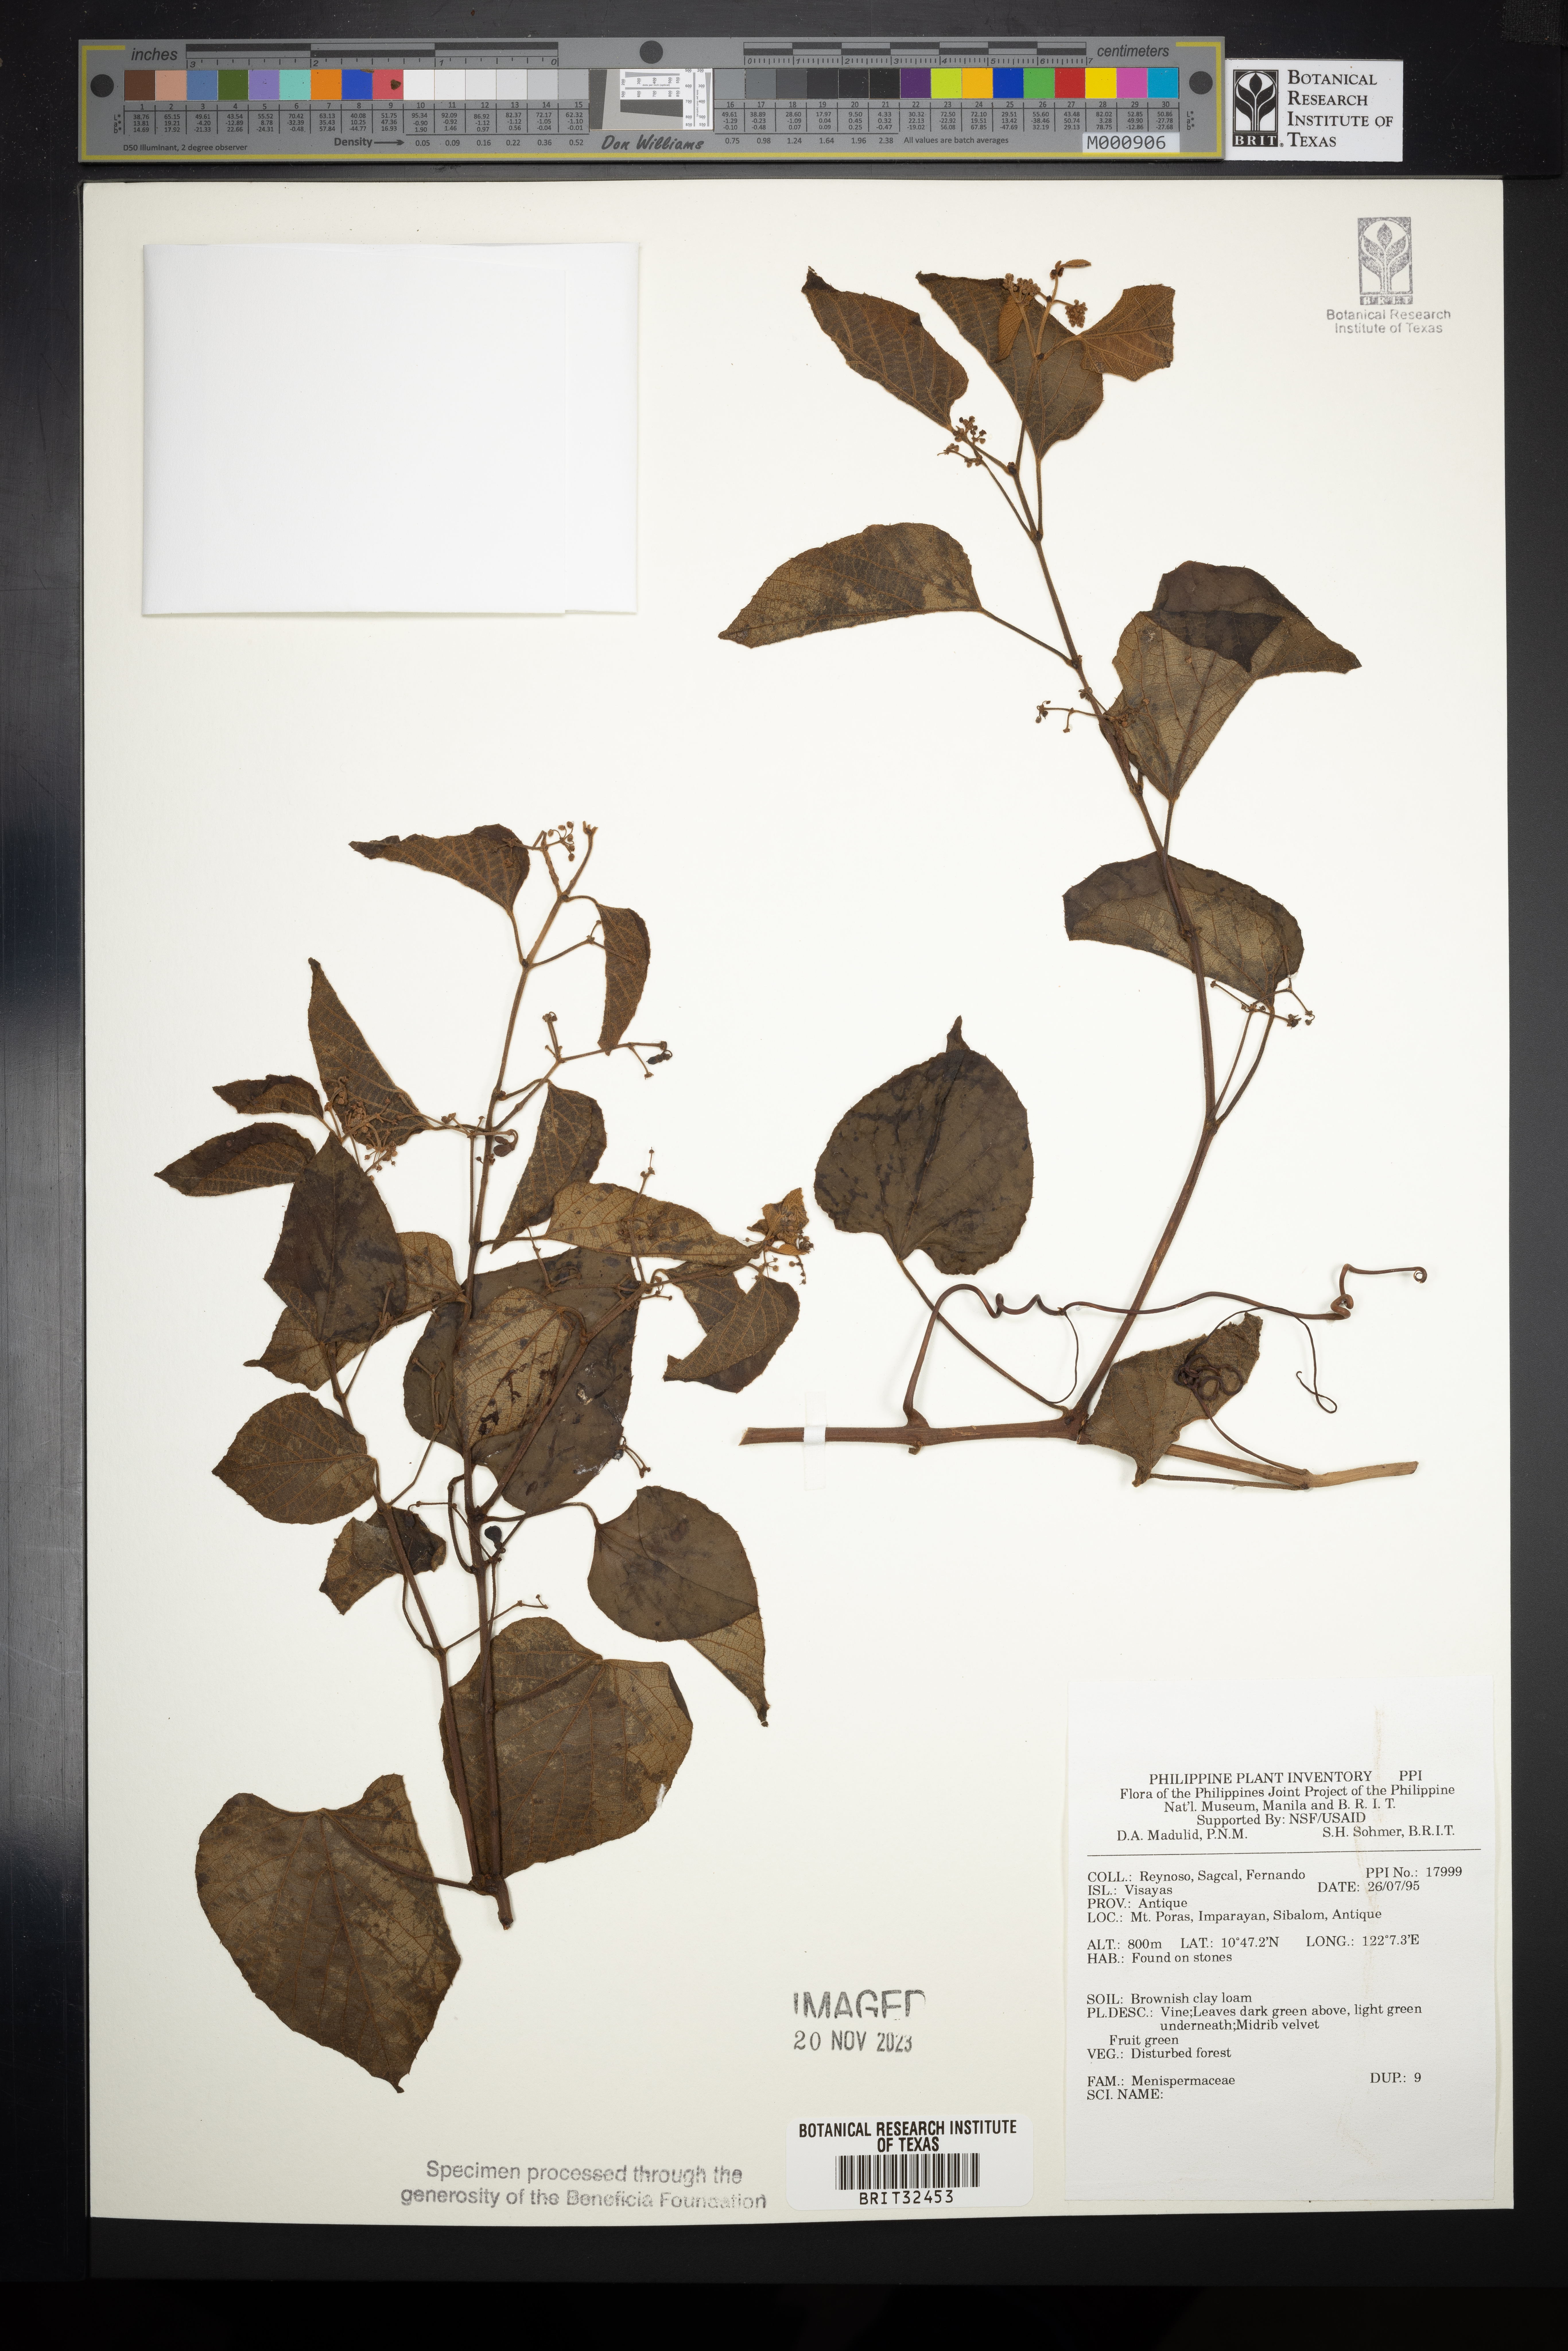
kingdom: Plantae
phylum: Tracheophyta
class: Magnoliopsida
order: Ranunculales
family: Menispermaceae
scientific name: Menispermaceae
